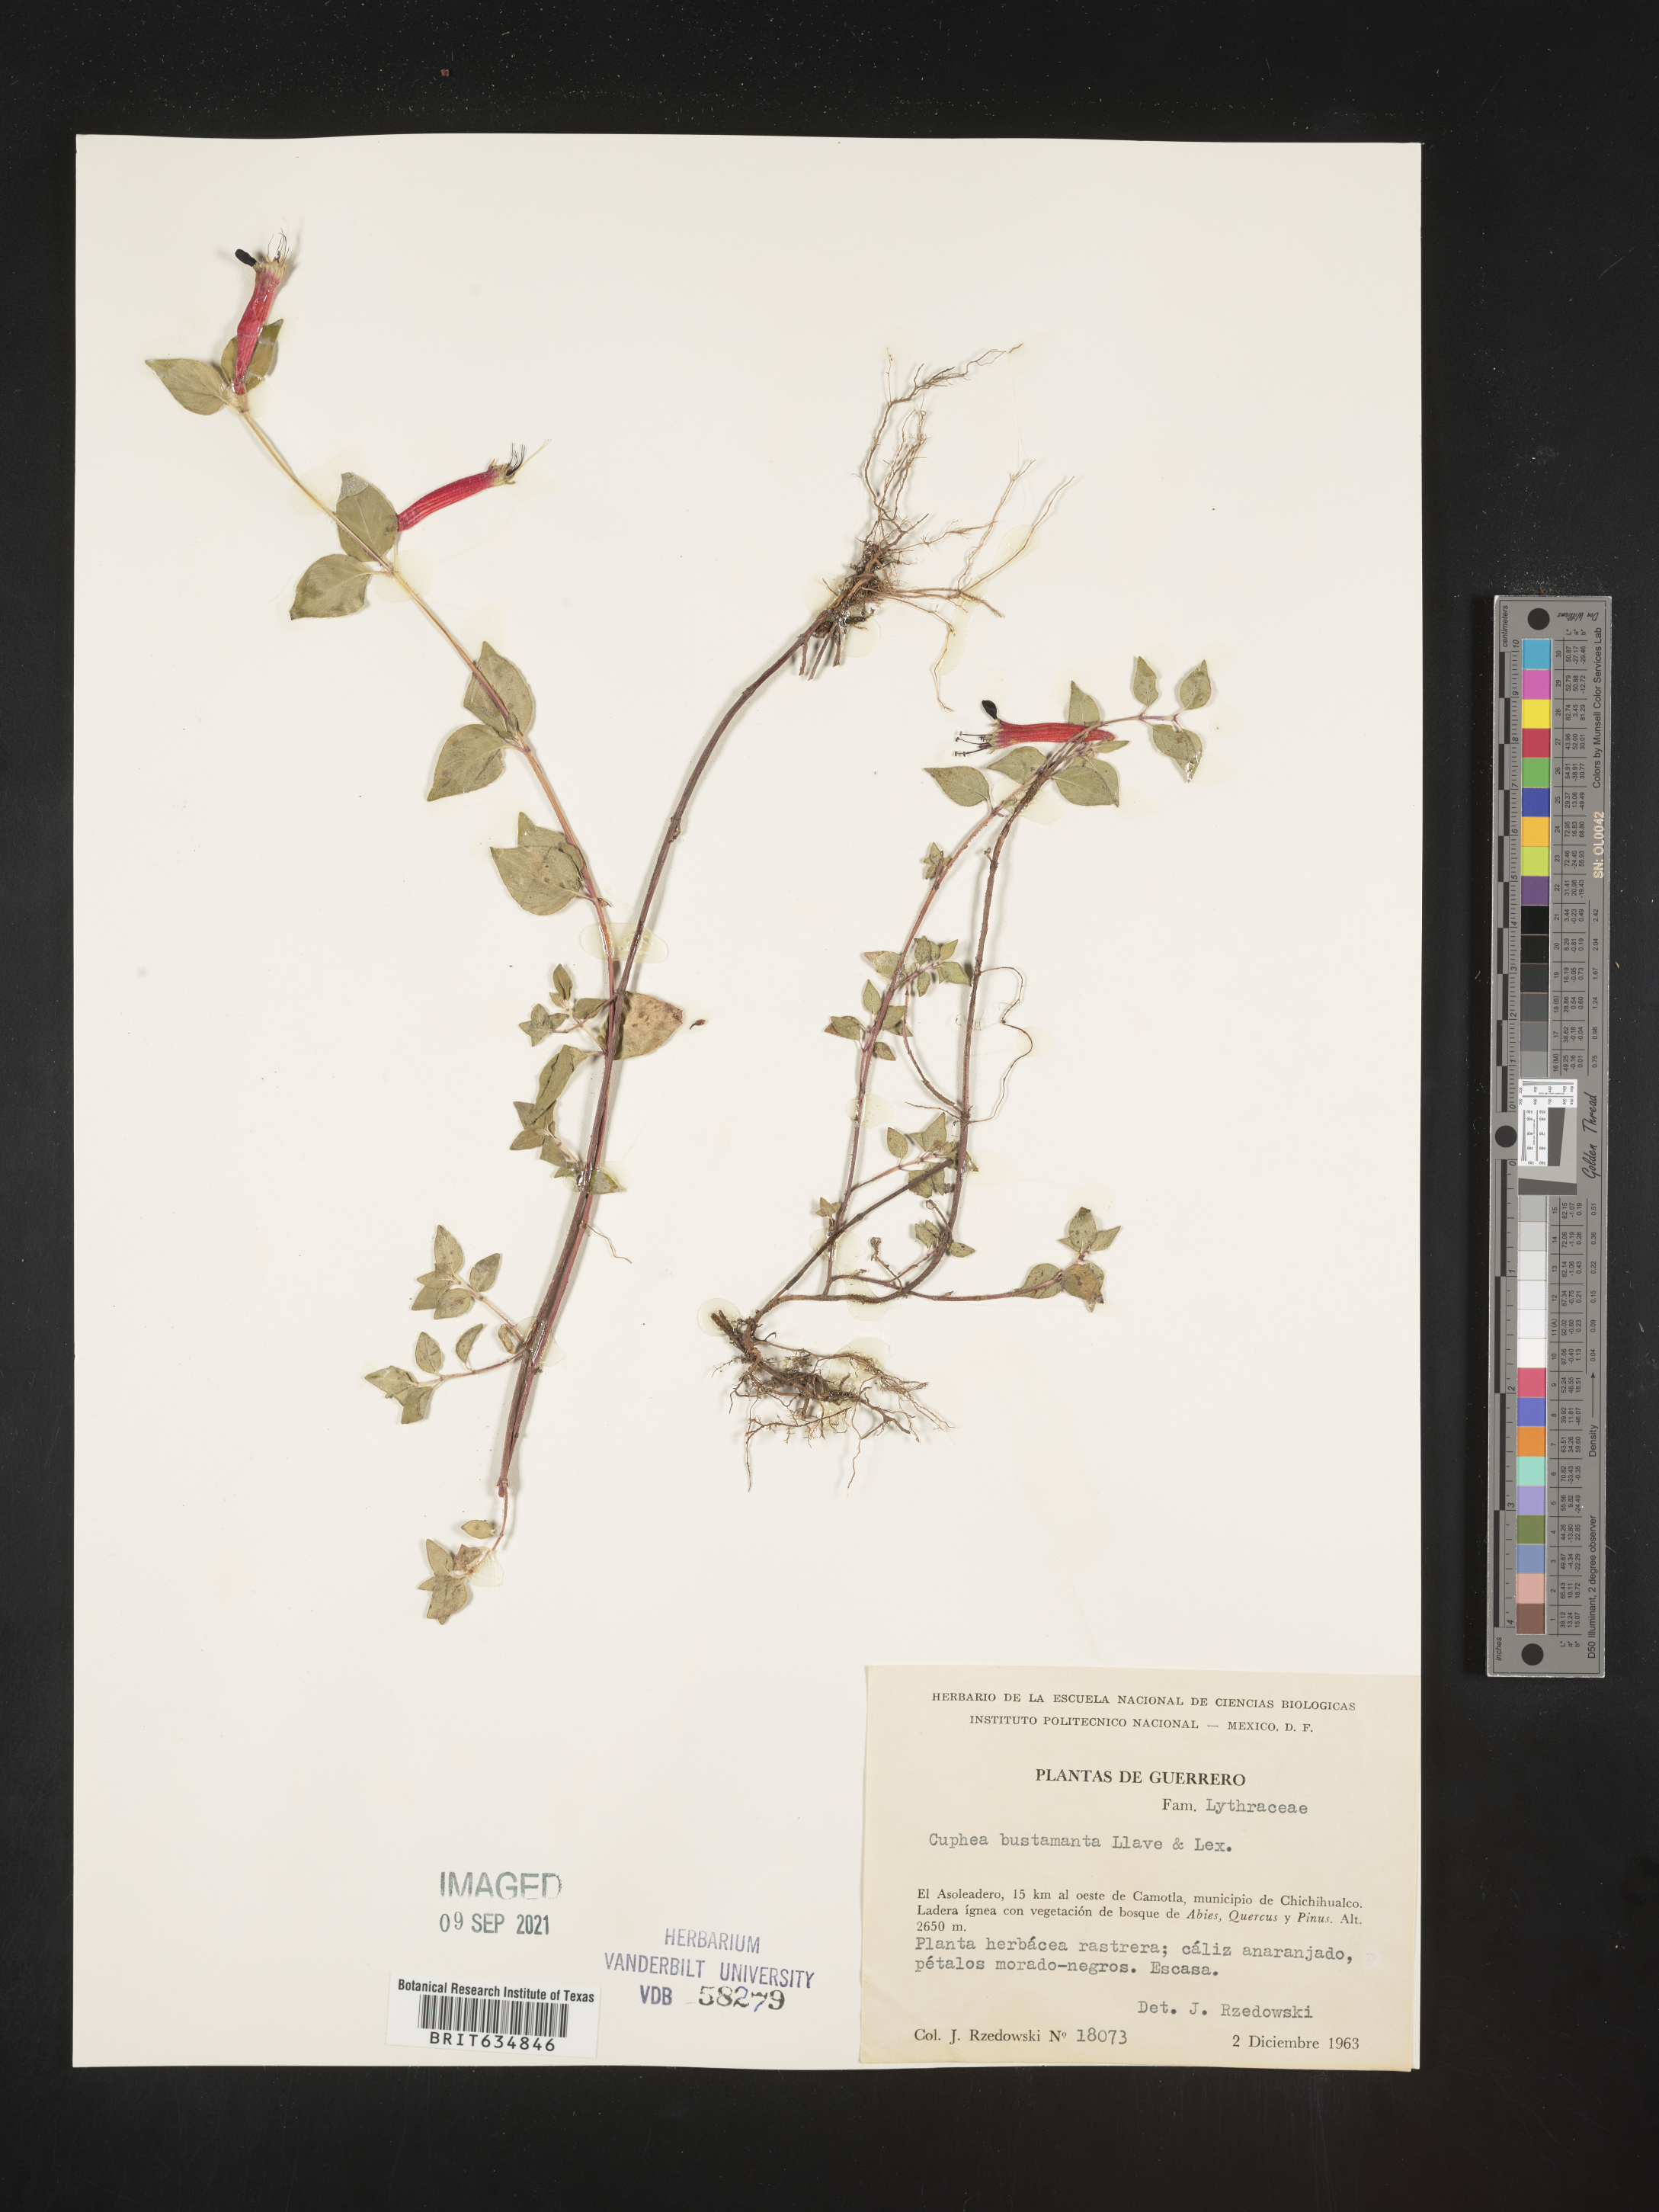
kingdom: Plantae
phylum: Tracheophyta
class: Magnoliopsida
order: Myrtales
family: Lythraceae
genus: Cuphea
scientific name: Cuphea
